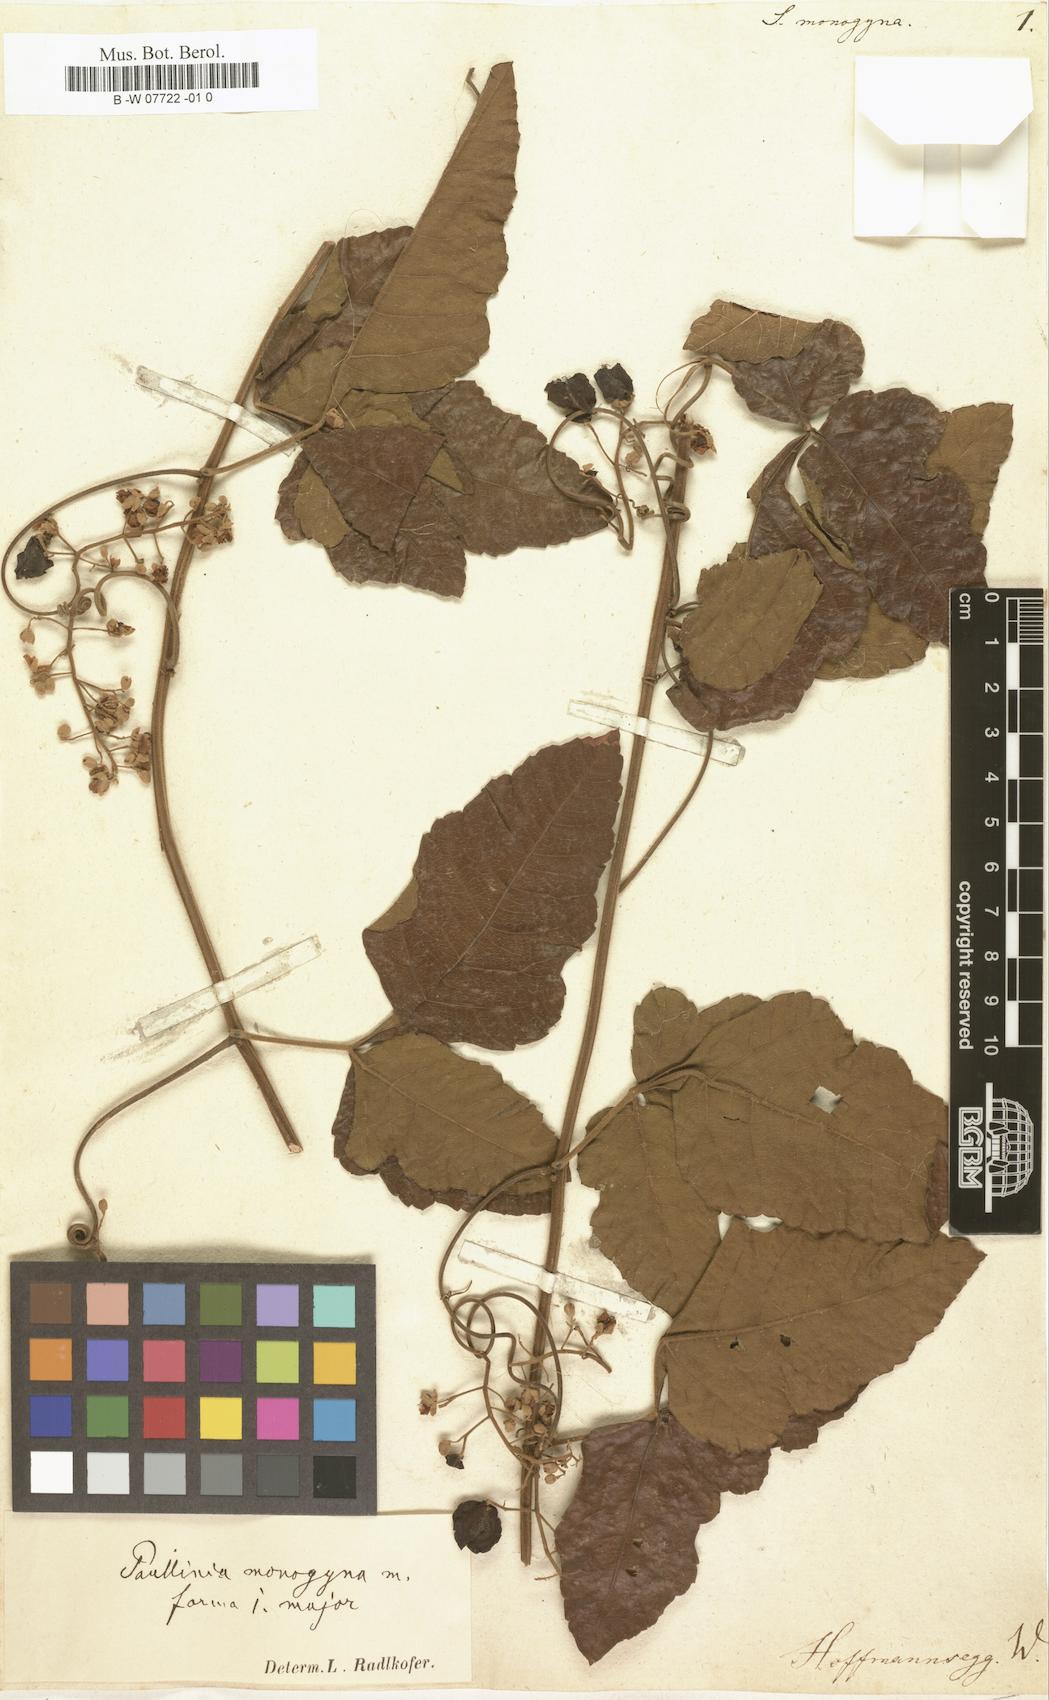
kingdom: Plantae
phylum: Tracheophyta
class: Magnoliopsida
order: Sapindales
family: Sapindaceae
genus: Seriana
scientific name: Seriana
